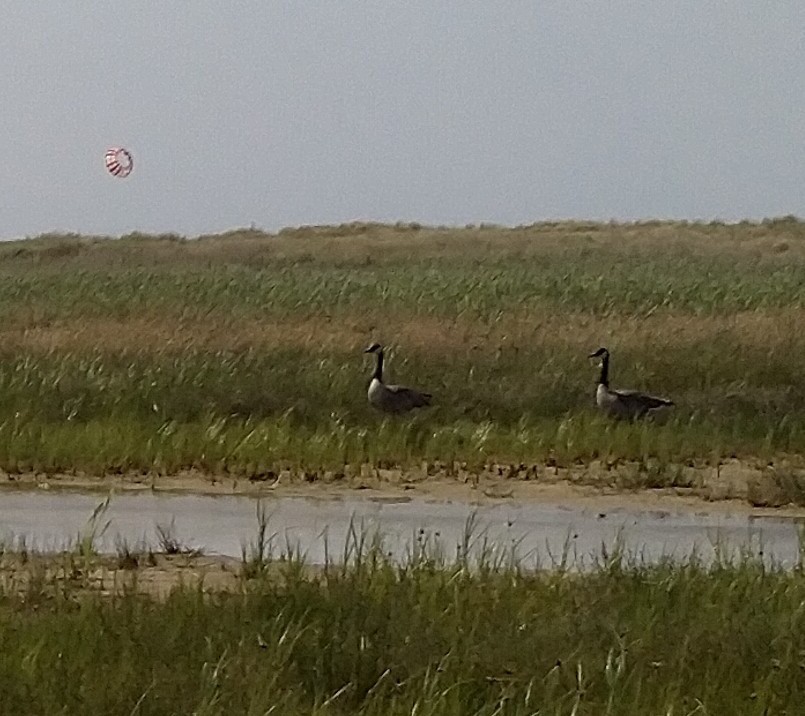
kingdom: Animalia
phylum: Chordata
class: Aves
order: Anseriformes
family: Anatidae
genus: Branta
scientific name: Branta canadensis
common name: Canadagås
